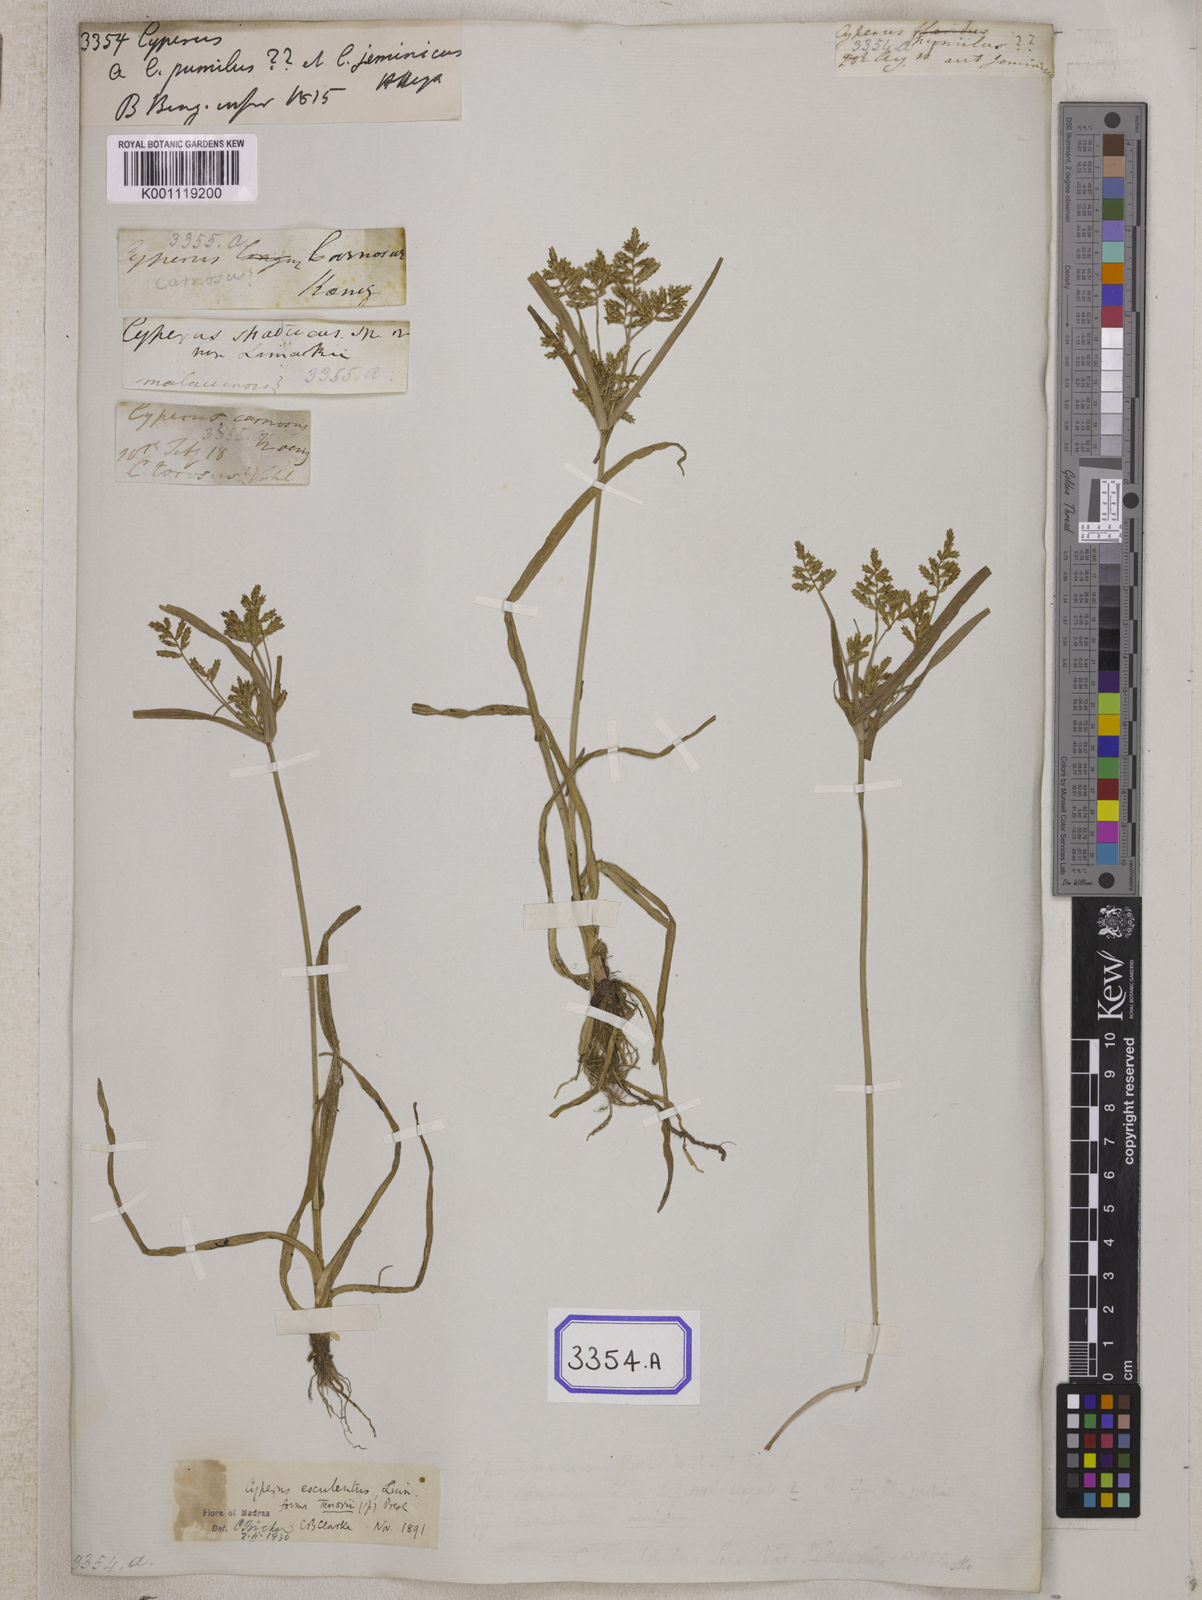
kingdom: Plantae
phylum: Tracheophyta
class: Liliopsida
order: Poales
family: Cyperaceae
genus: Cyperus
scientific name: Cyperus
